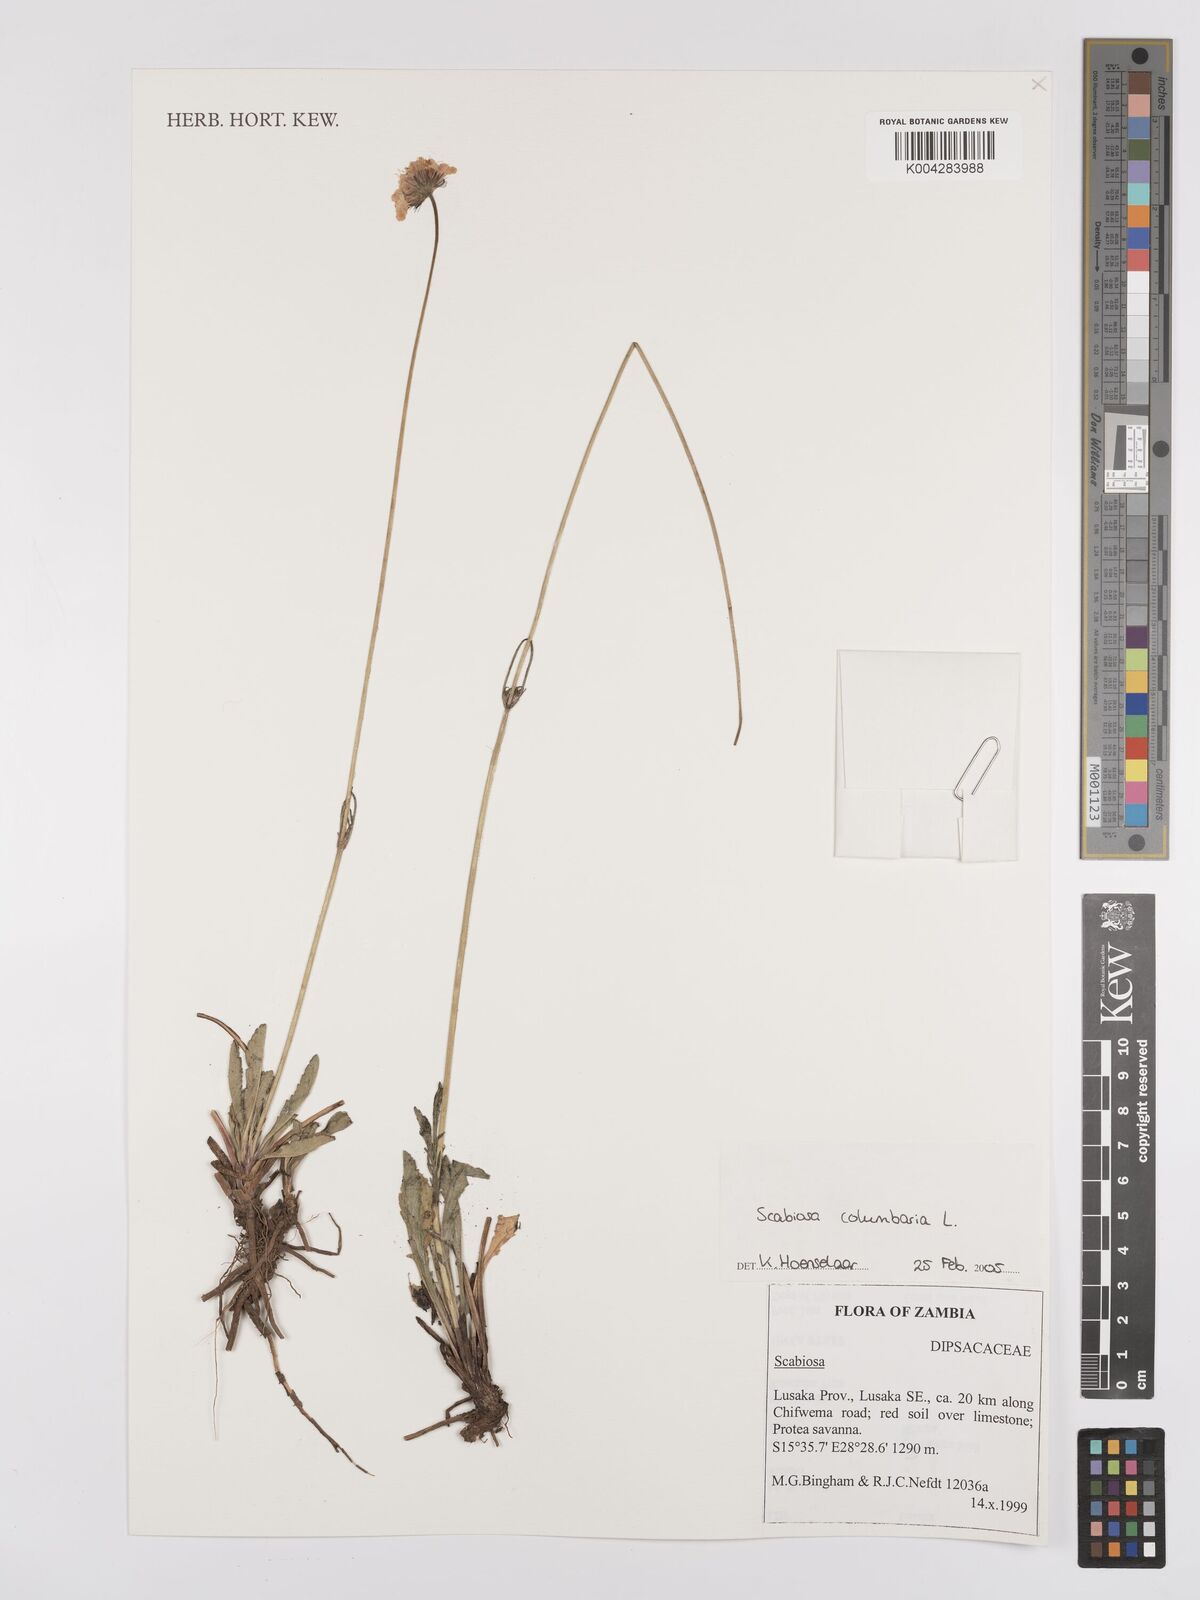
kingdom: Plantae
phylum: Tracheophyta
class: Magnoliopsida
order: Dipsacales
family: Caprifoliaceae
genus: Scabiosa
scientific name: Scabiosa austroafricana
